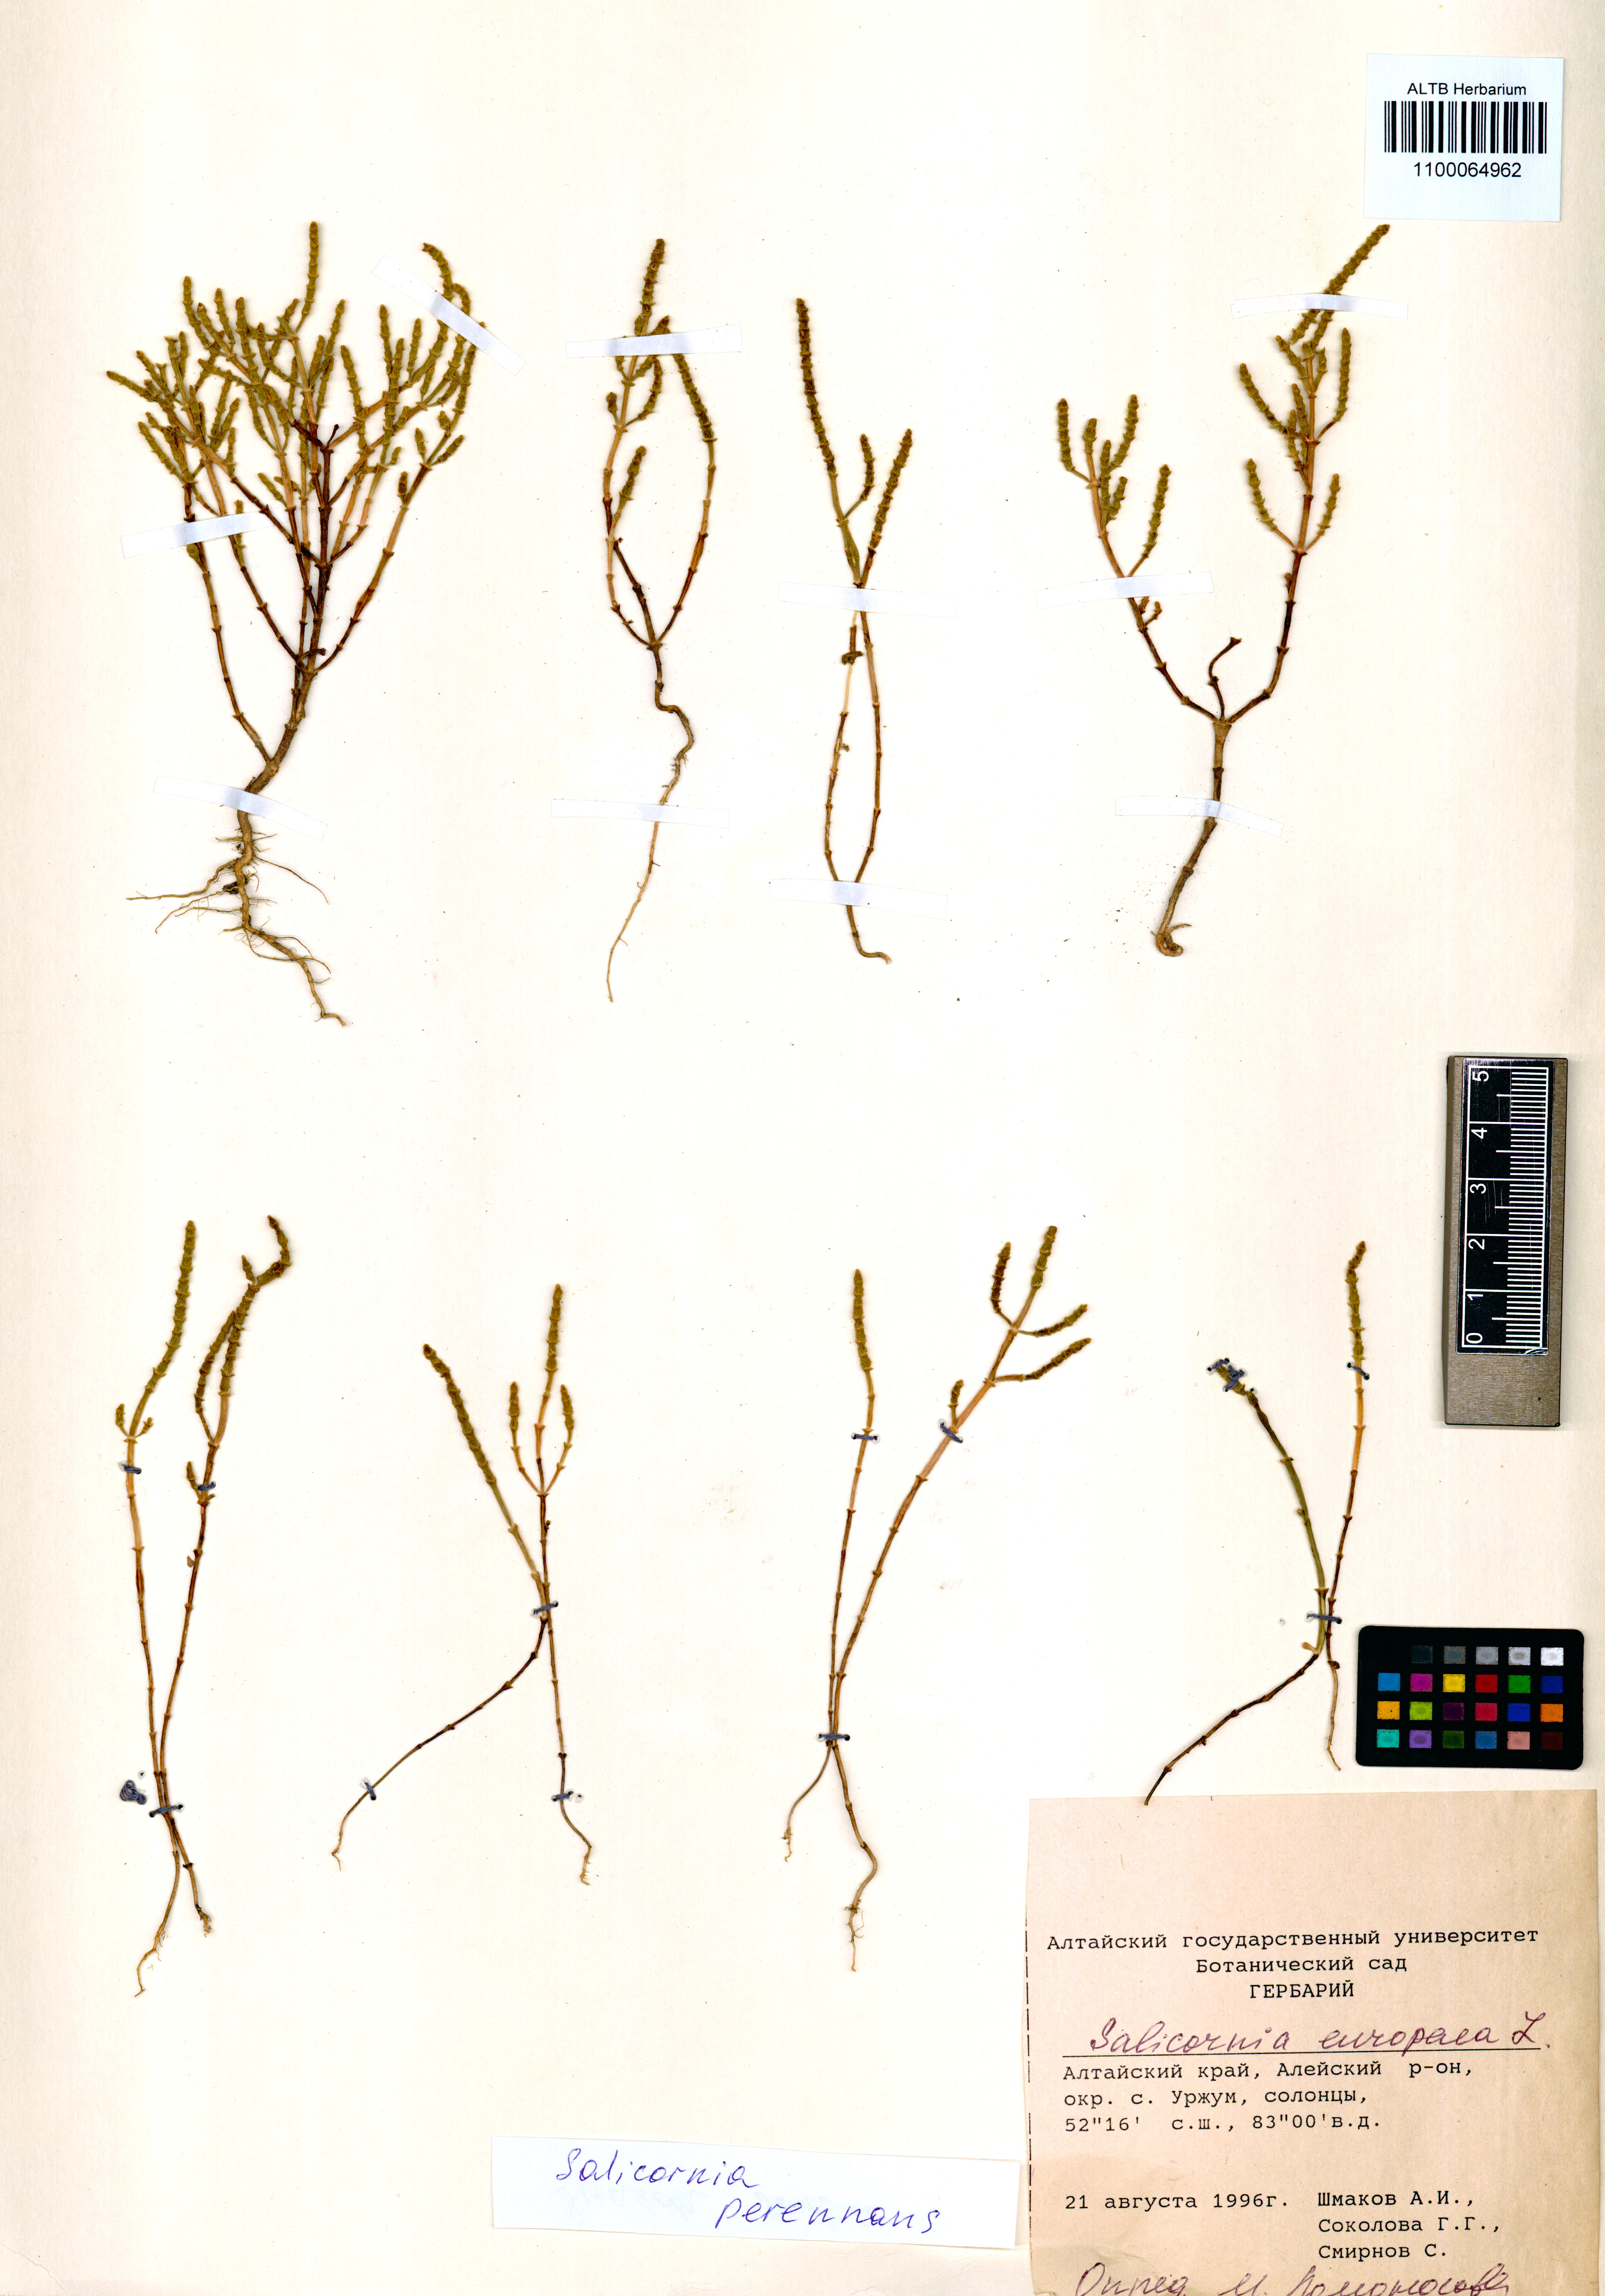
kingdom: Plantae
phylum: Tracheophyta
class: Magnoliopsida
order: Caryophyllales
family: Amaranthaceae
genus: Salicornia
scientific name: Salicornia perennans
